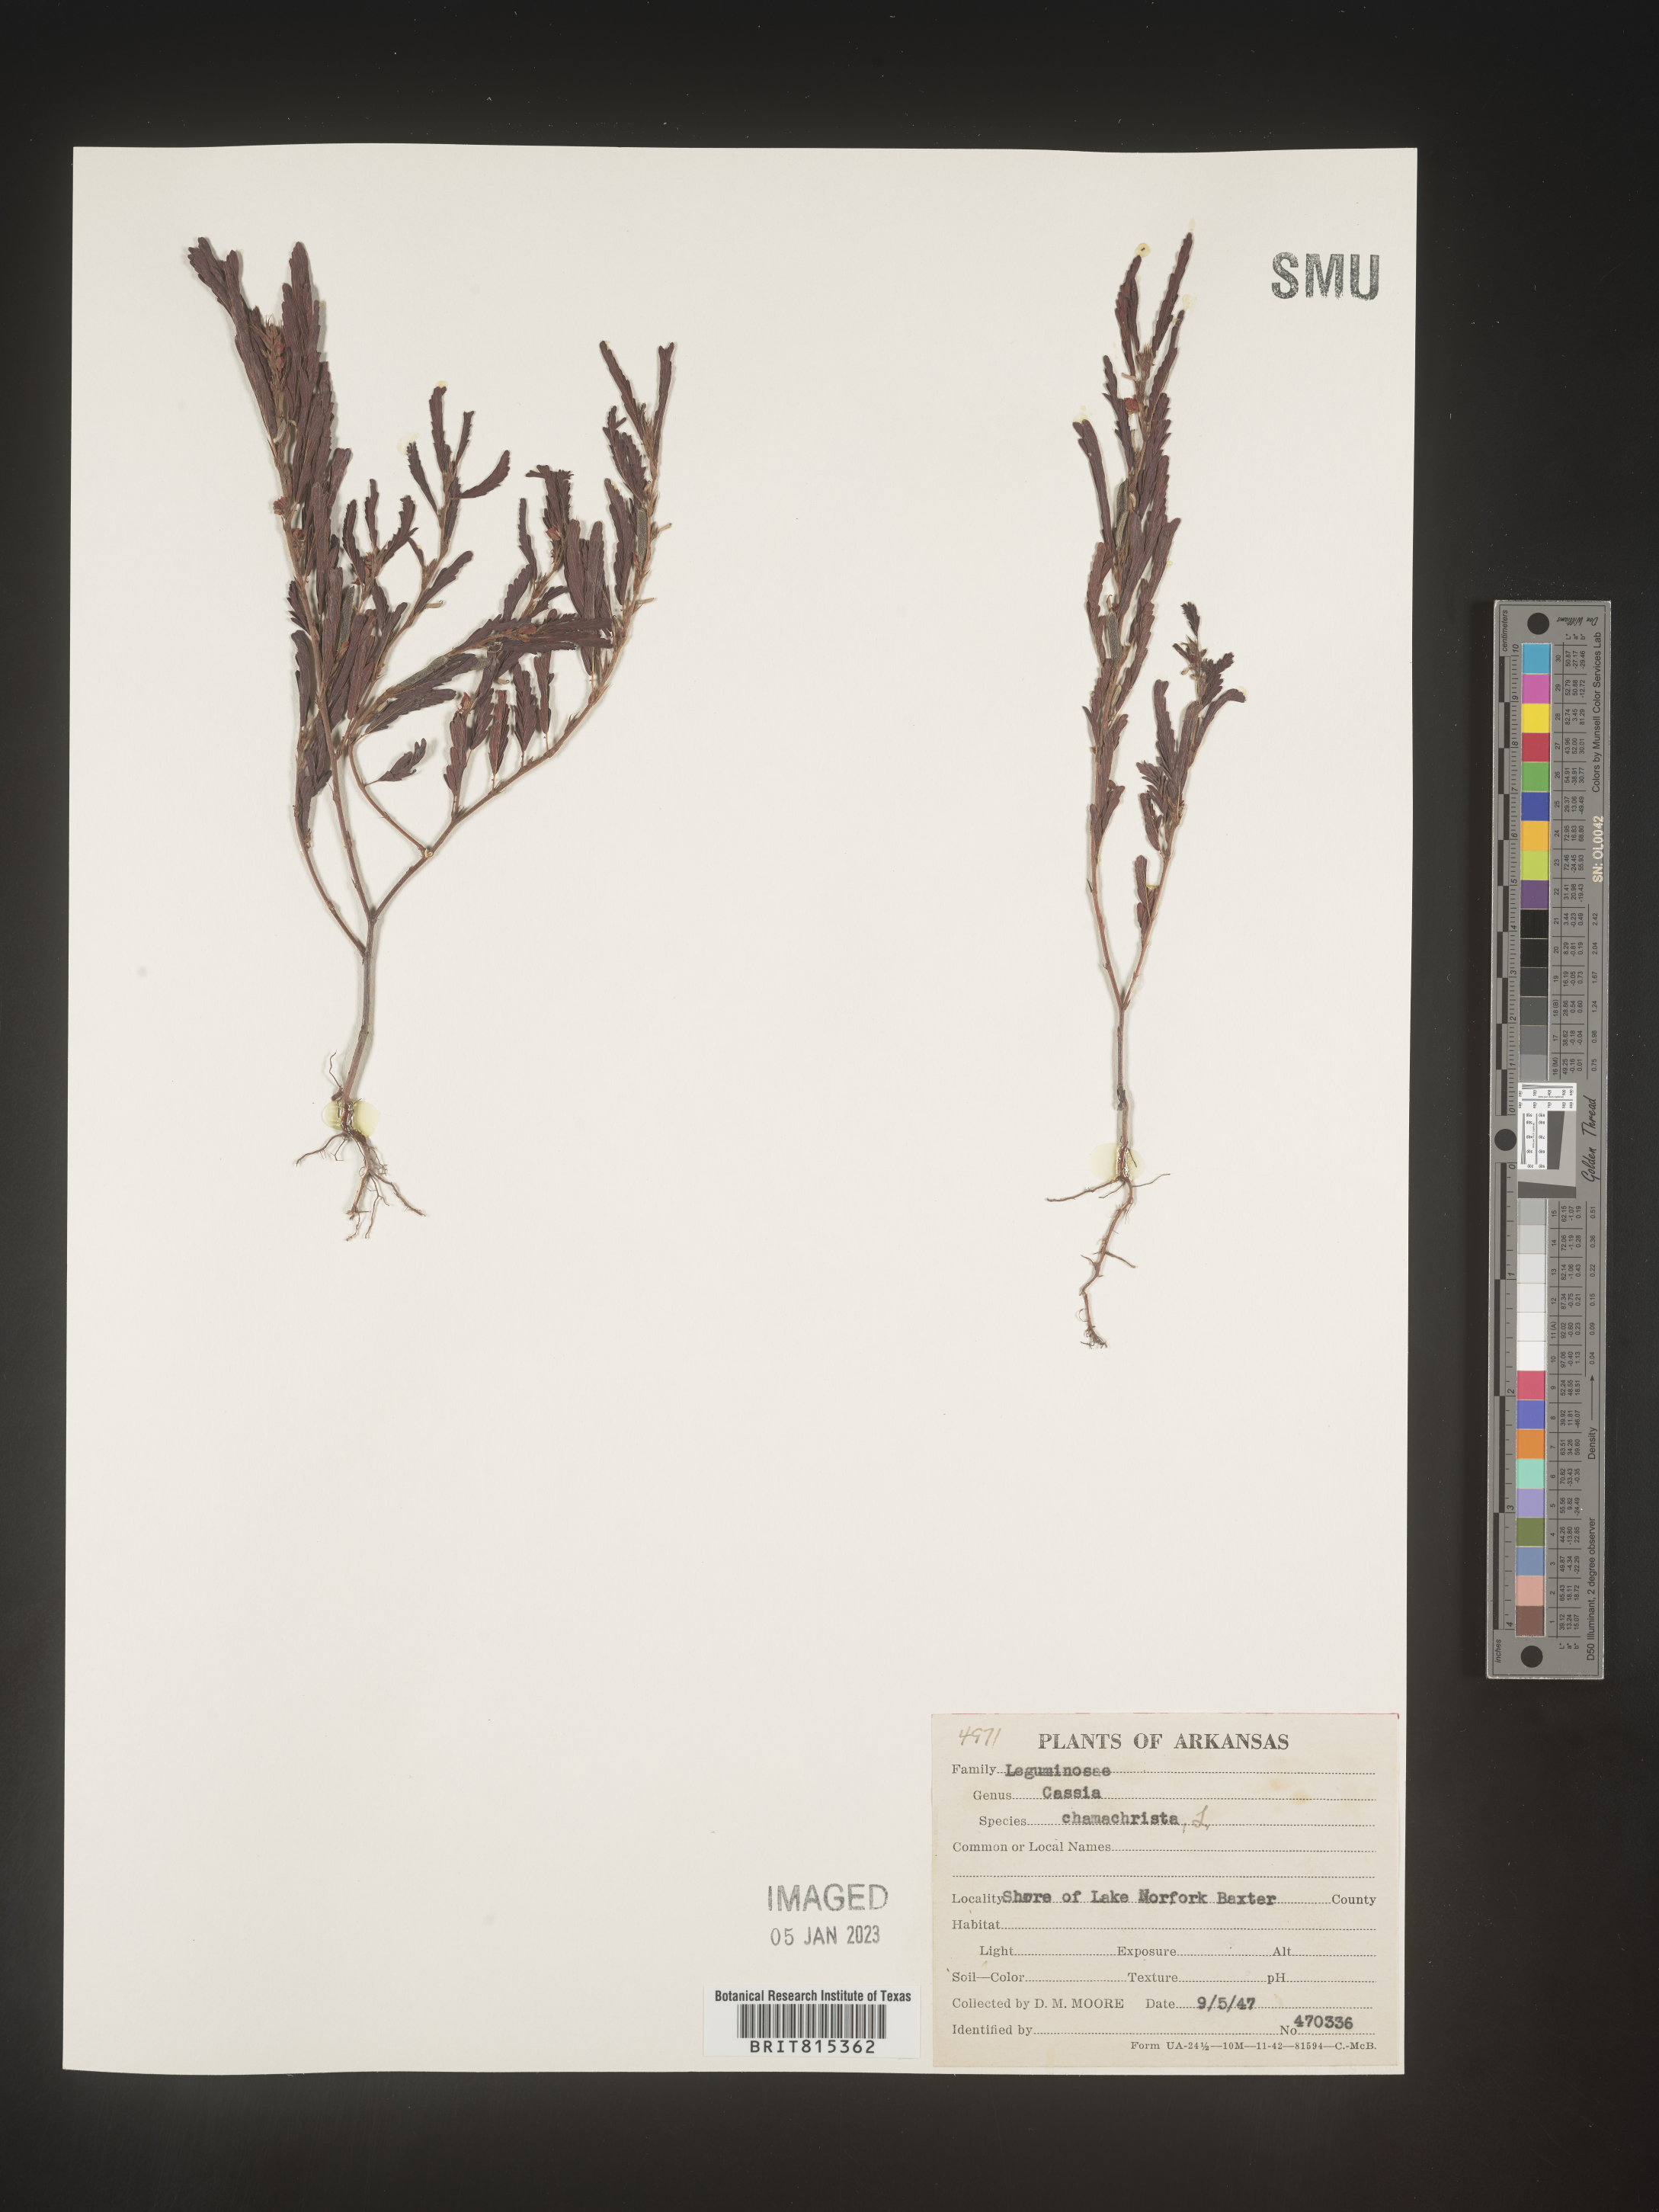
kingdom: Plantae
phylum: Tracheophyta
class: Magnoliopsida
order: Fabales
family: Fabaceae
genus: Chamaecrista
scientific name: Chamaecrista nictitans
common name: Sensitive cassia
